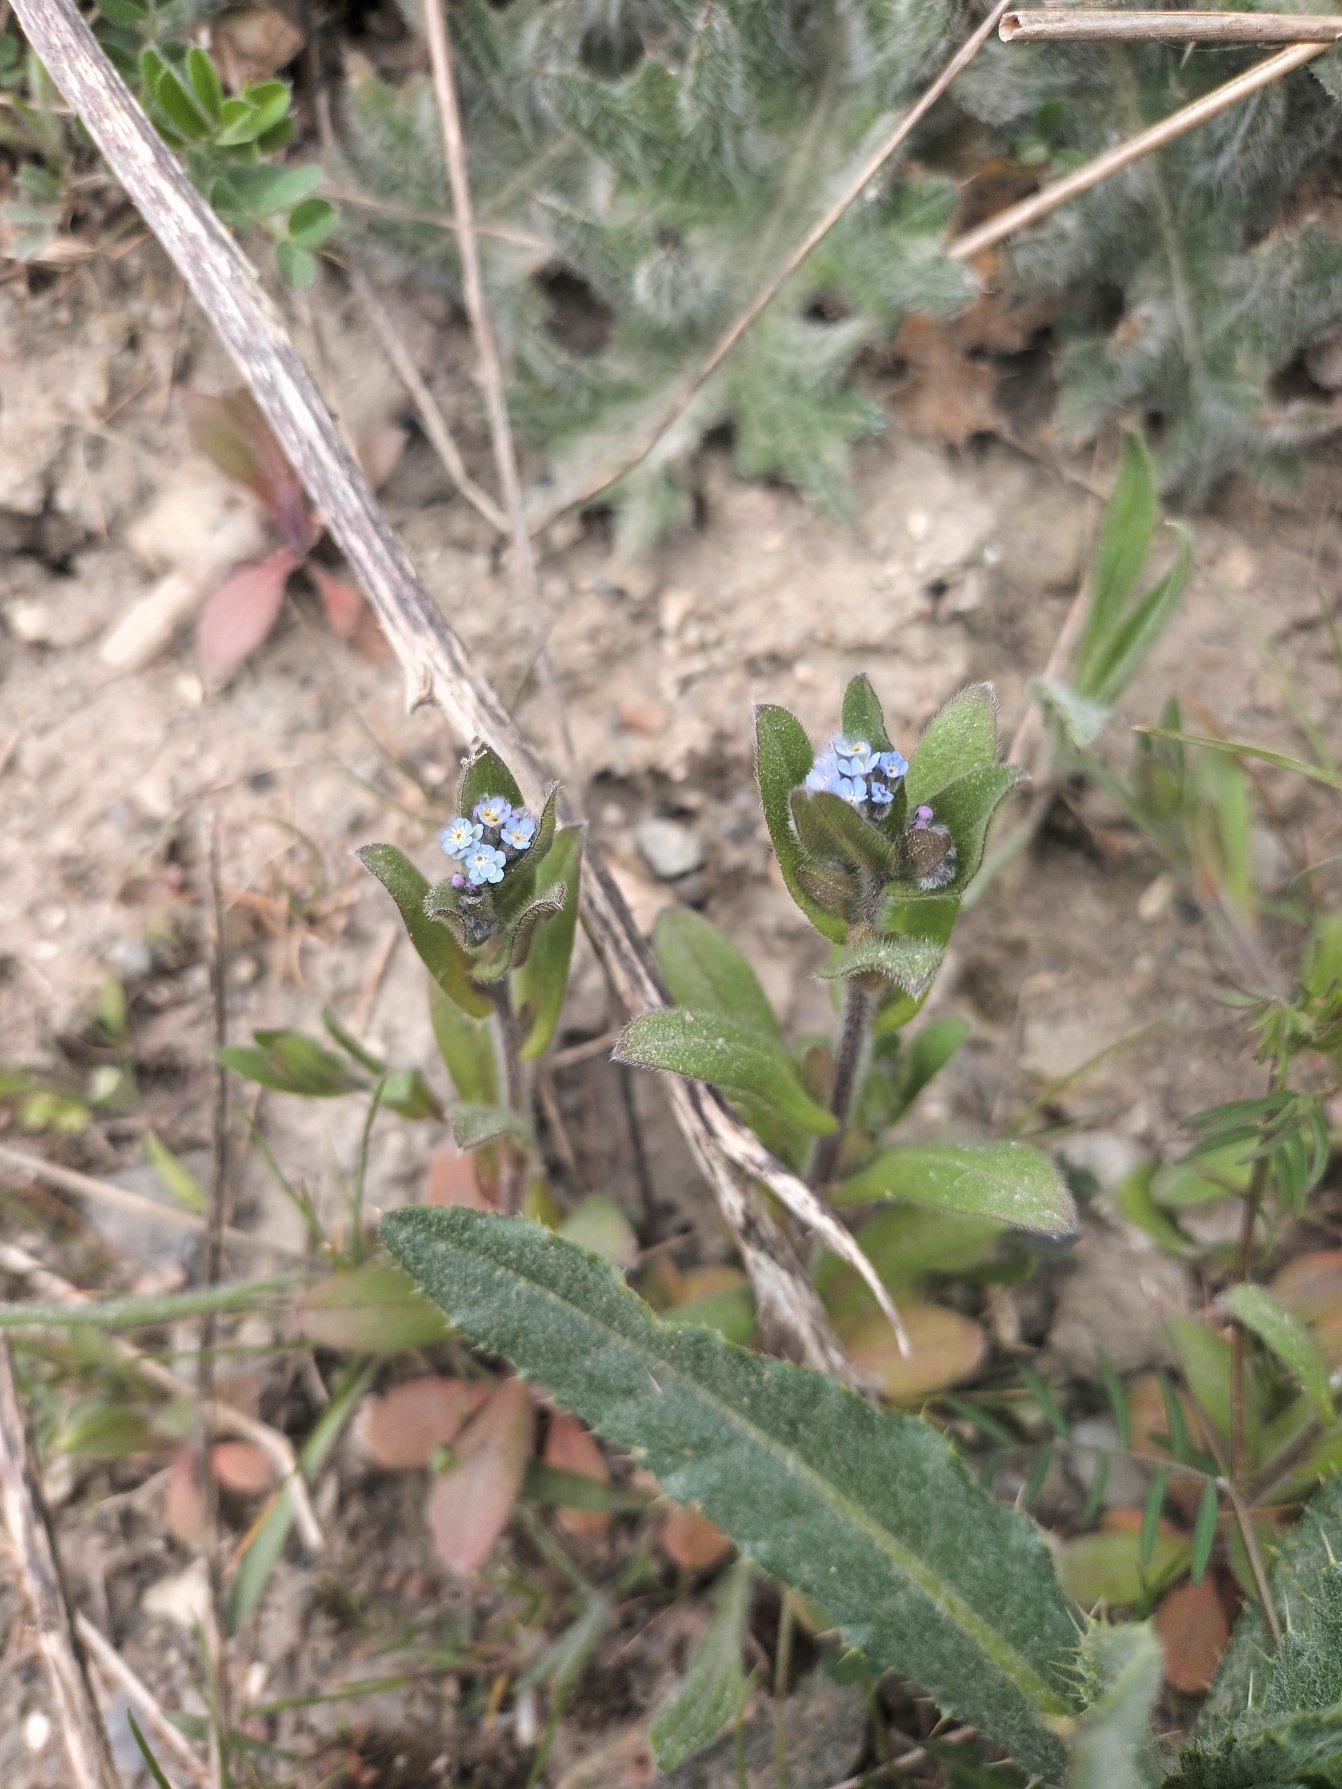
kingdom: Plantae
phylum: Tracheophyta
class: Magnoliopsida
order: Boraginales
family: Boraginaceae
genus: Myosotis
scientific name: Myosotis arvensis
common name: Mark-forglemmigej
